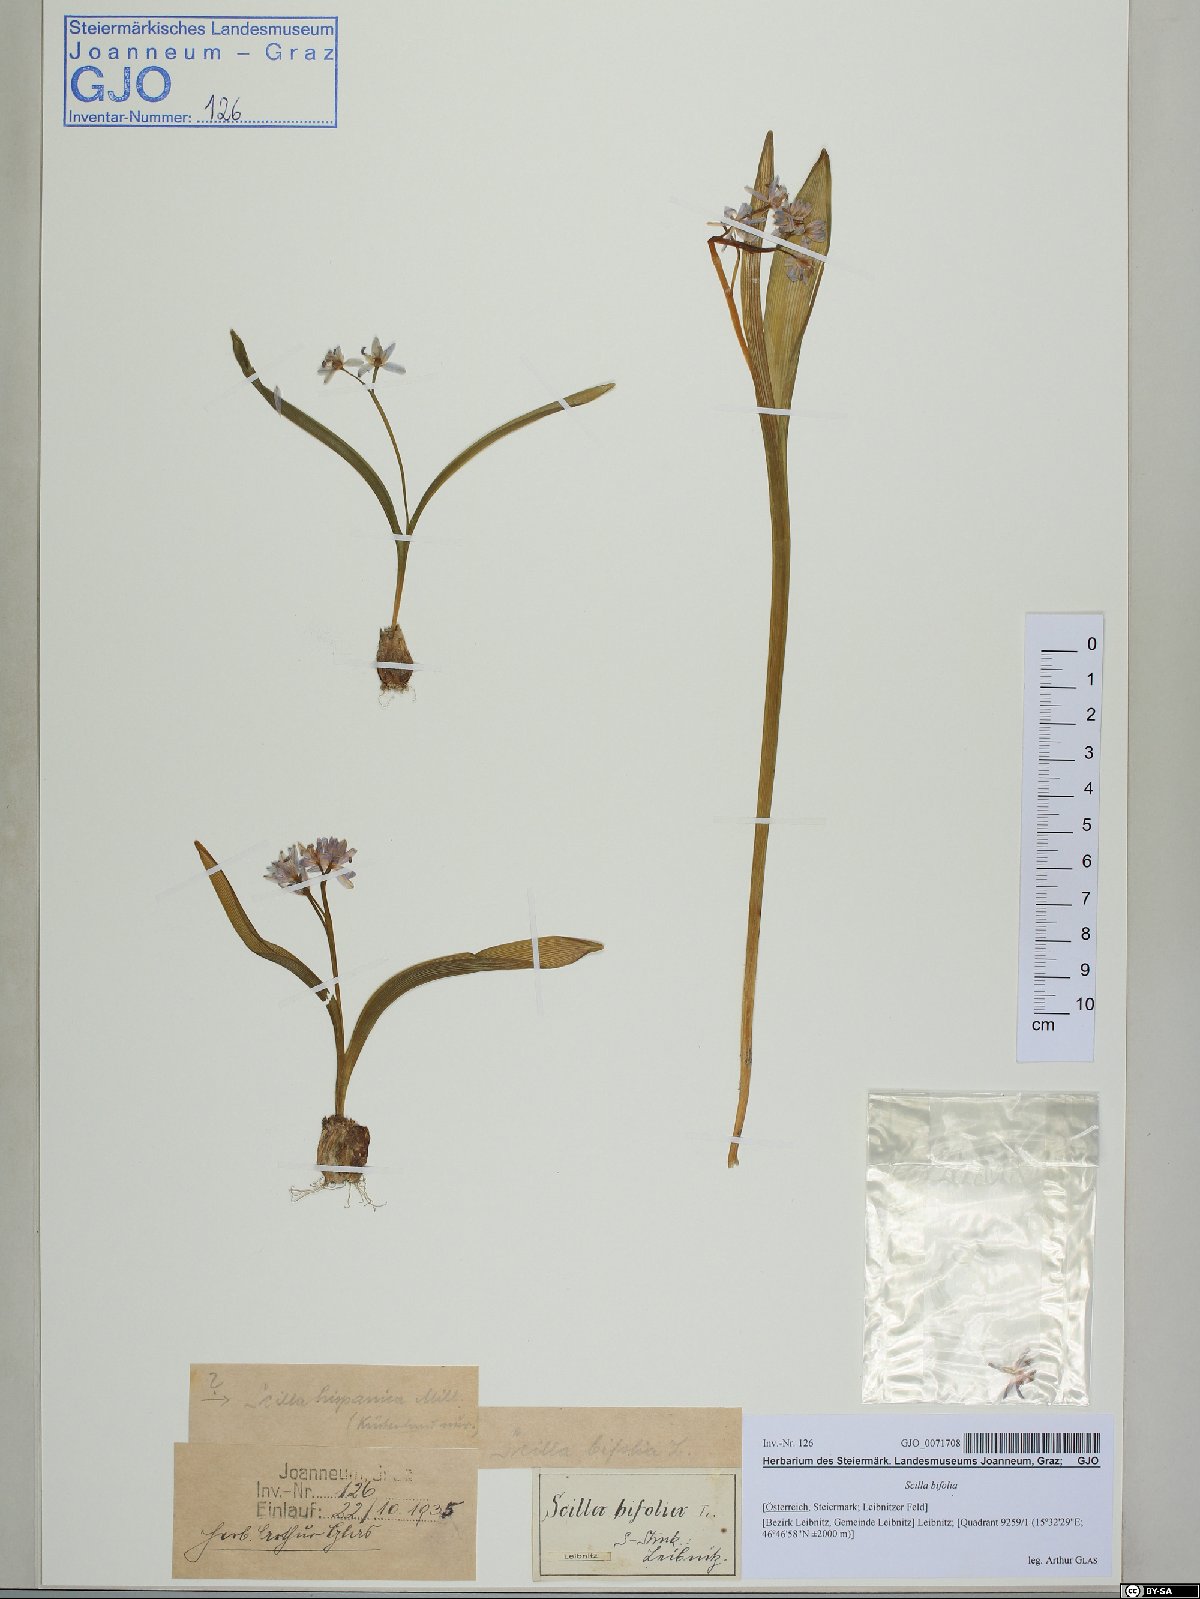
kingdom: Plantae
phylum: Tracheophyta
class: Liliopsida
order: Asparagales
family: Asparagaceae
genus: Scilla
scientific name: Scilla bifolia
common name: Alpine squill
